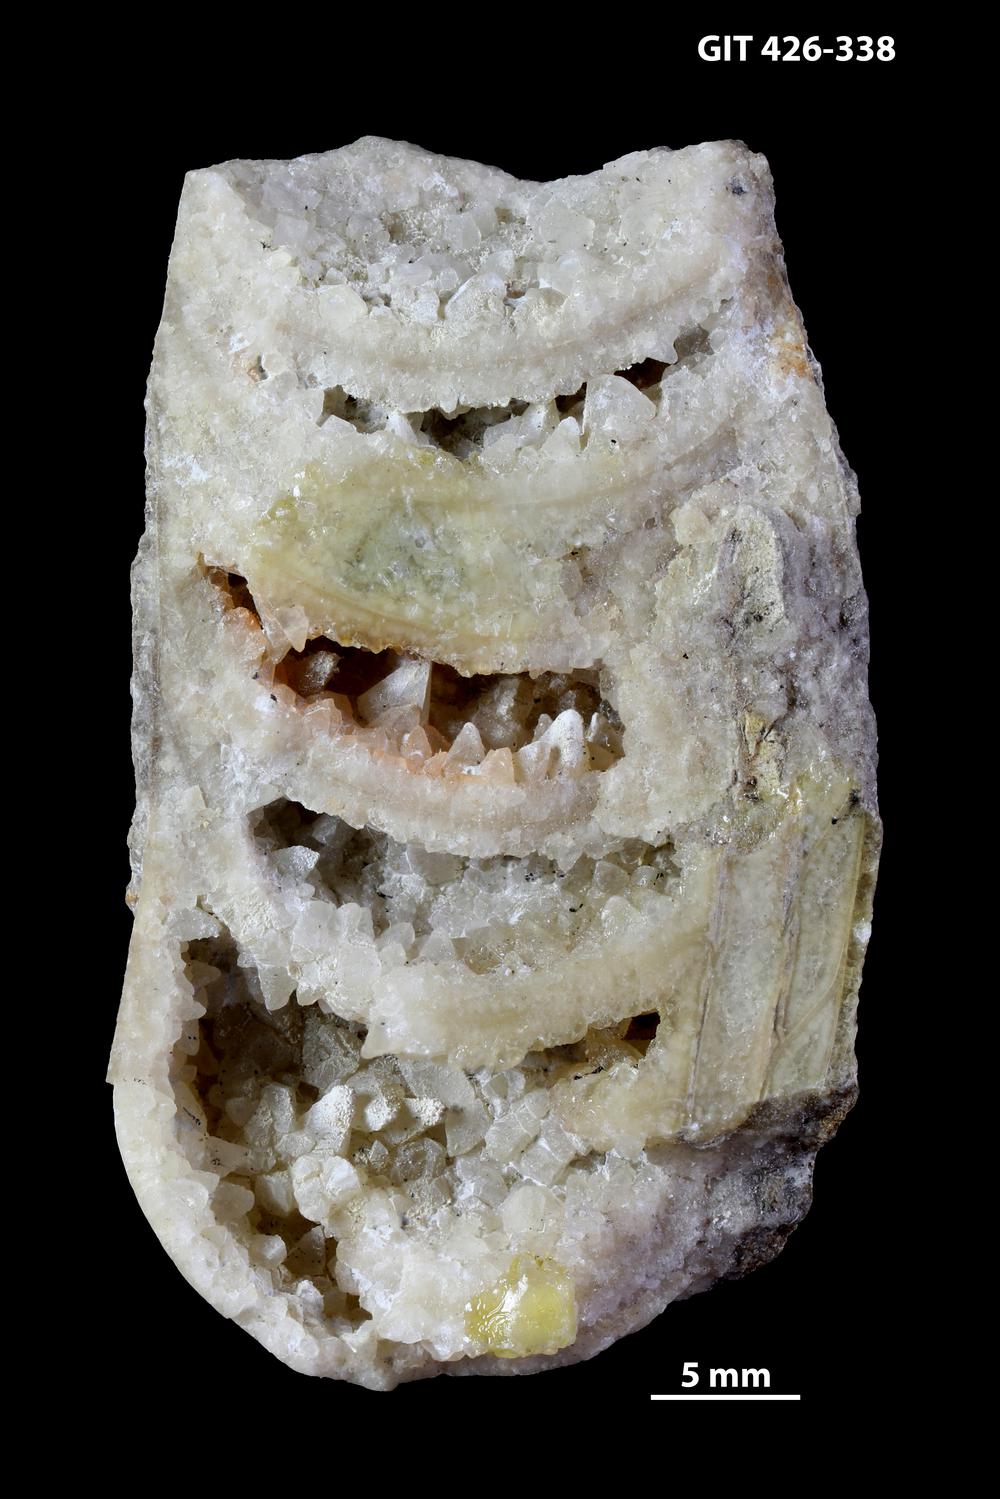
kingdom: Animalia
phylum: Mollusca
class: Cephalopoda
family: Estonioceratidae
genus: Tragoceras
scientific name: Tragoceras
